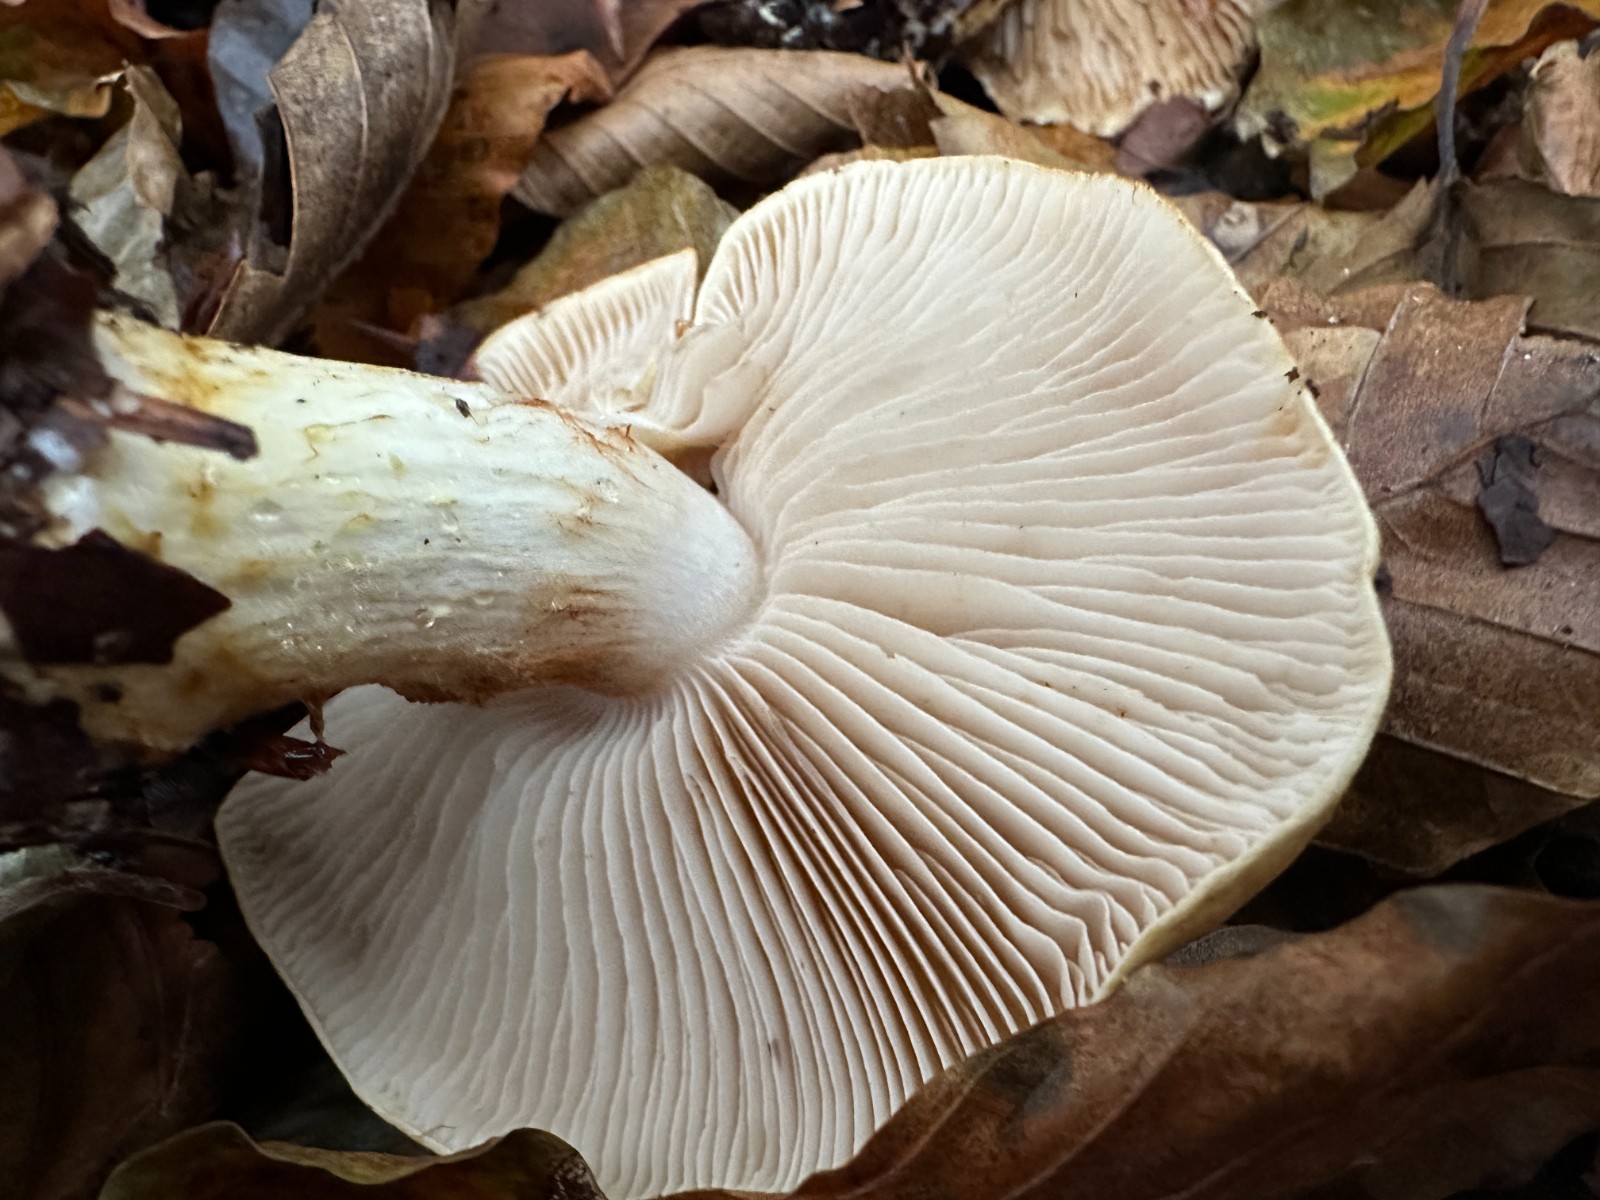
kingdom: Fungi
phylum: Basidiomycota
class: Agaricomycetes
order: Agaricales
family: Cortinariaceae
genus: Phlegmacium
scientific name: Phlegmacium cliduchus
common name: majs-slørhat
